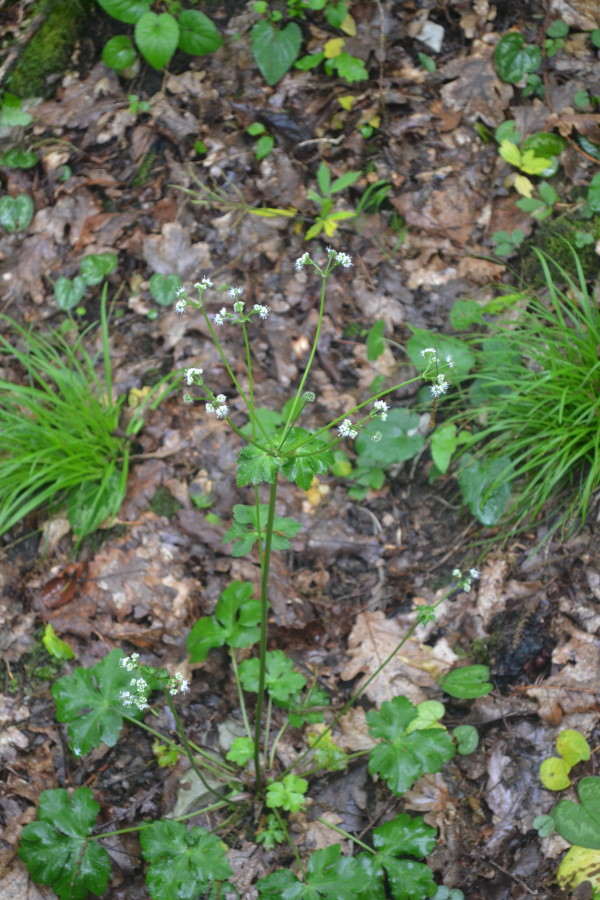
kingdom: Plantae
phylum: Tracheophyta
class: Magnoliopsida
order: Apiales
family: Apiaceae
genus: Sanicula
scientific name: Sanicula europaea
